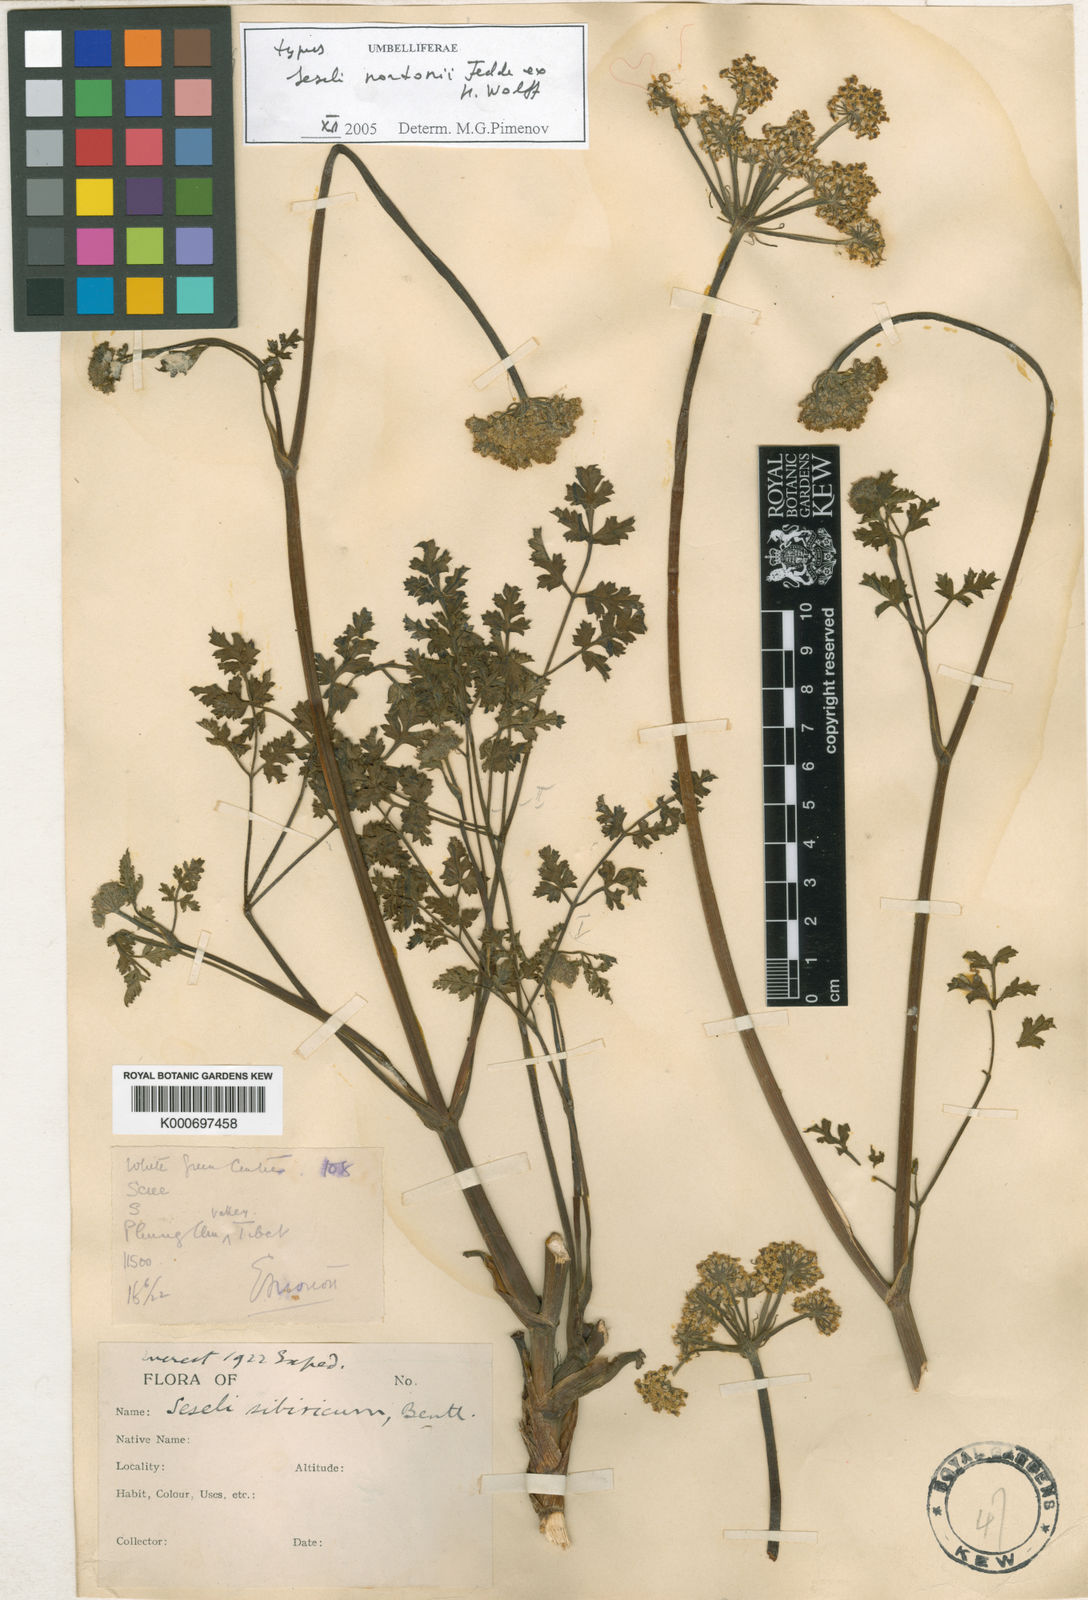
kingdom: Plantae
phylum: Tracheophyta
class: Magnoliopsida
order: Apiales
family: Apiaceae
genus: Seseli
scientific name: Seseli nudum
